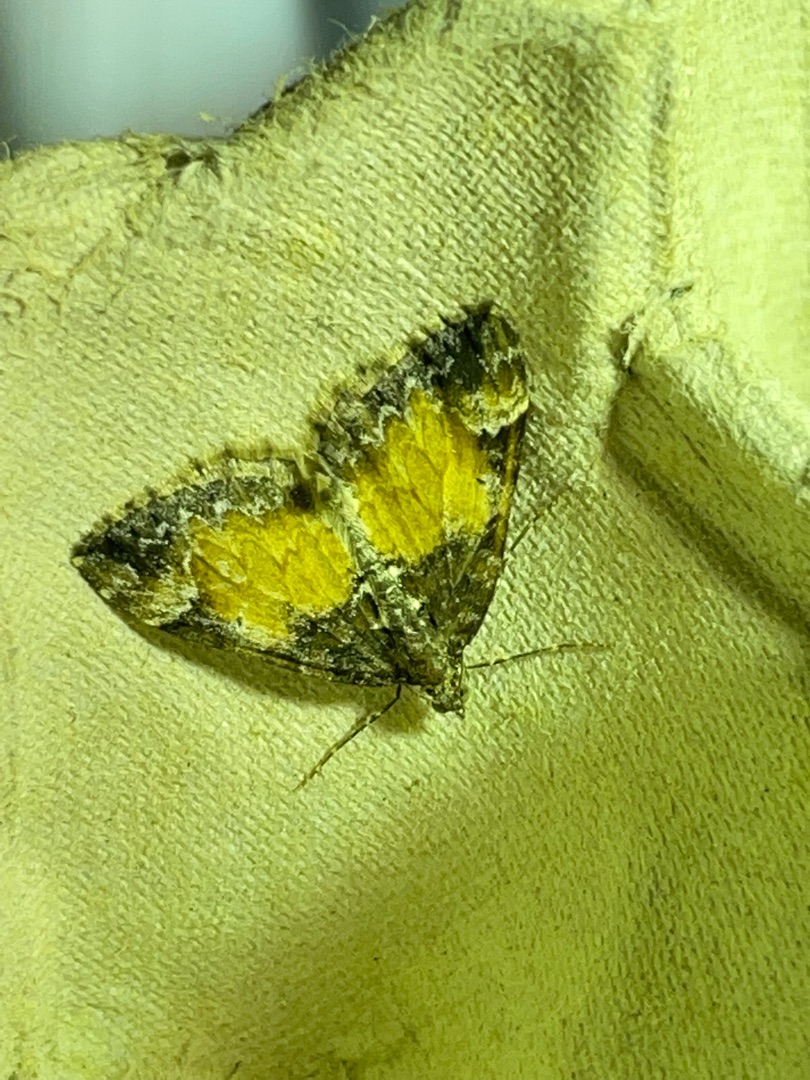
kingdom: Animalia
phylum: Arthropoda
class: Insecta
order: Lepidoptera
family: Geometridae
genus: Dysstroma
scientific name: Dysstroma truncata
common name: Jordbær-bladmåler
